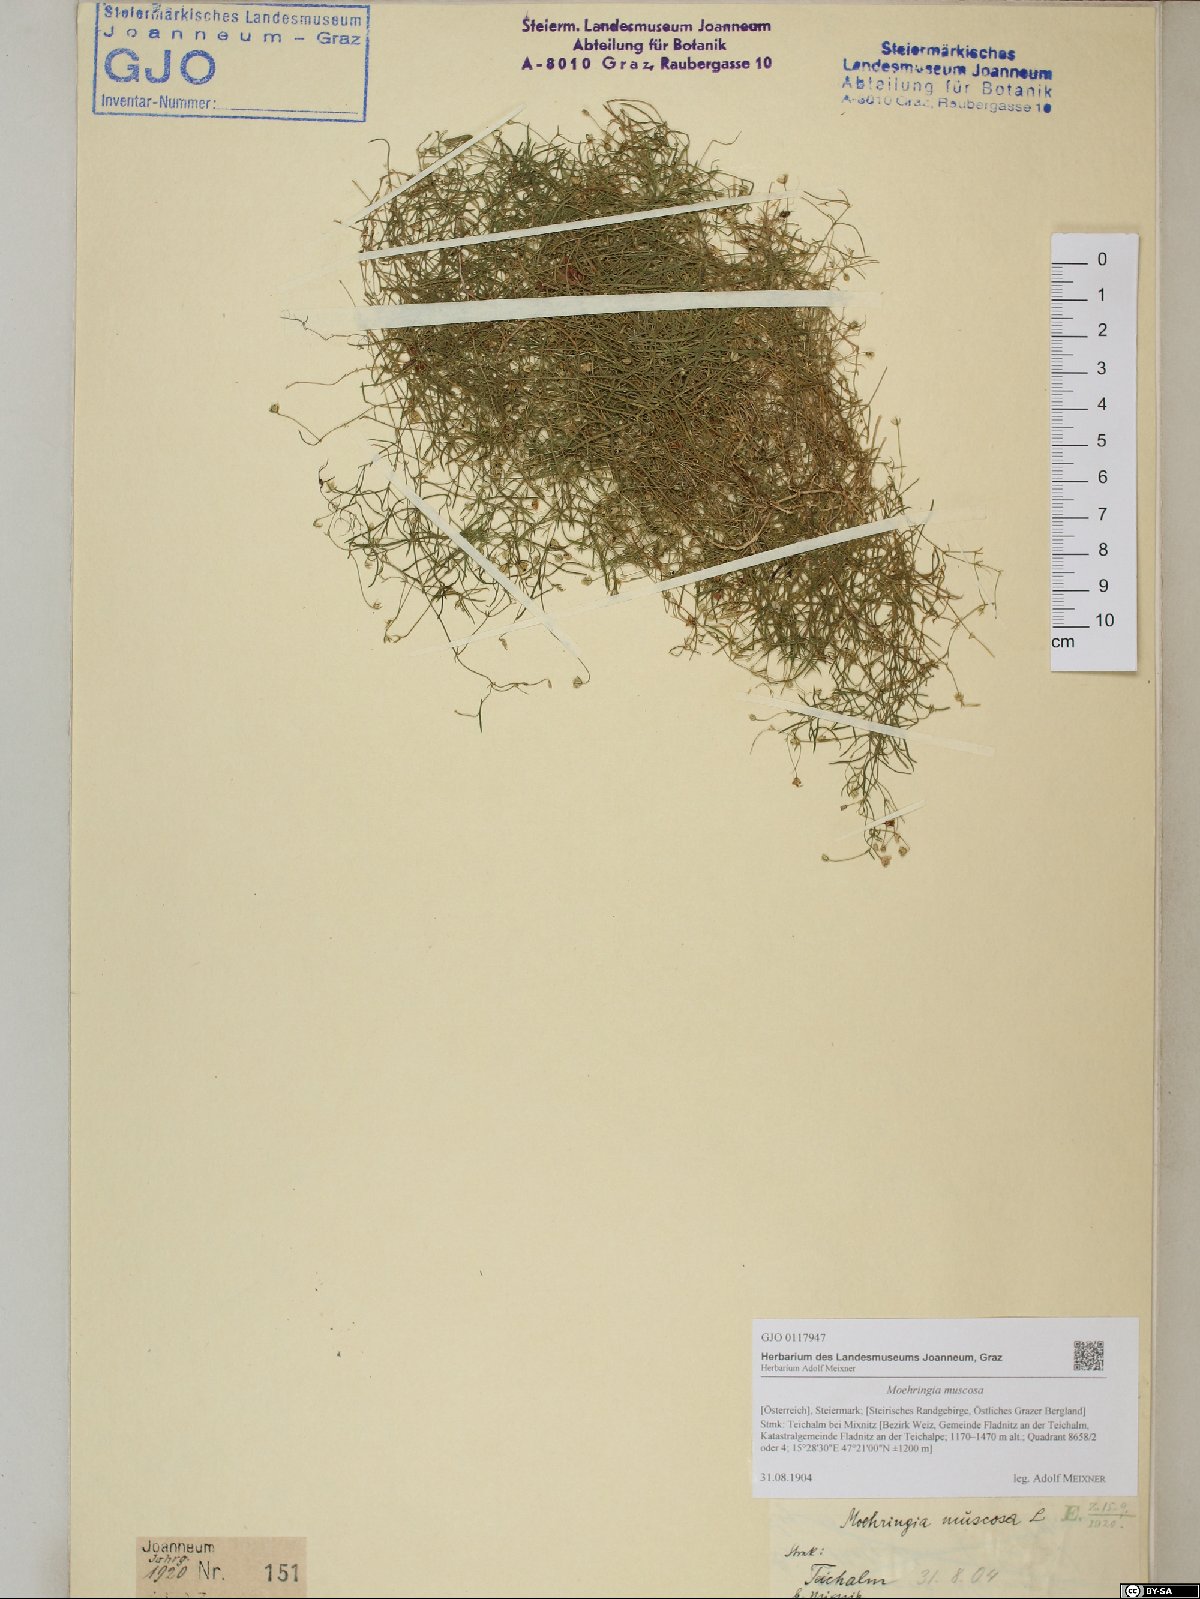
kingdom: Plantae
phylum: Tracheophyta
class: Magnoliopsida
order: Caryophyllales
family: Caryophyllaceae
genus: Moehringia
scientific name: Moehringia muscosa
